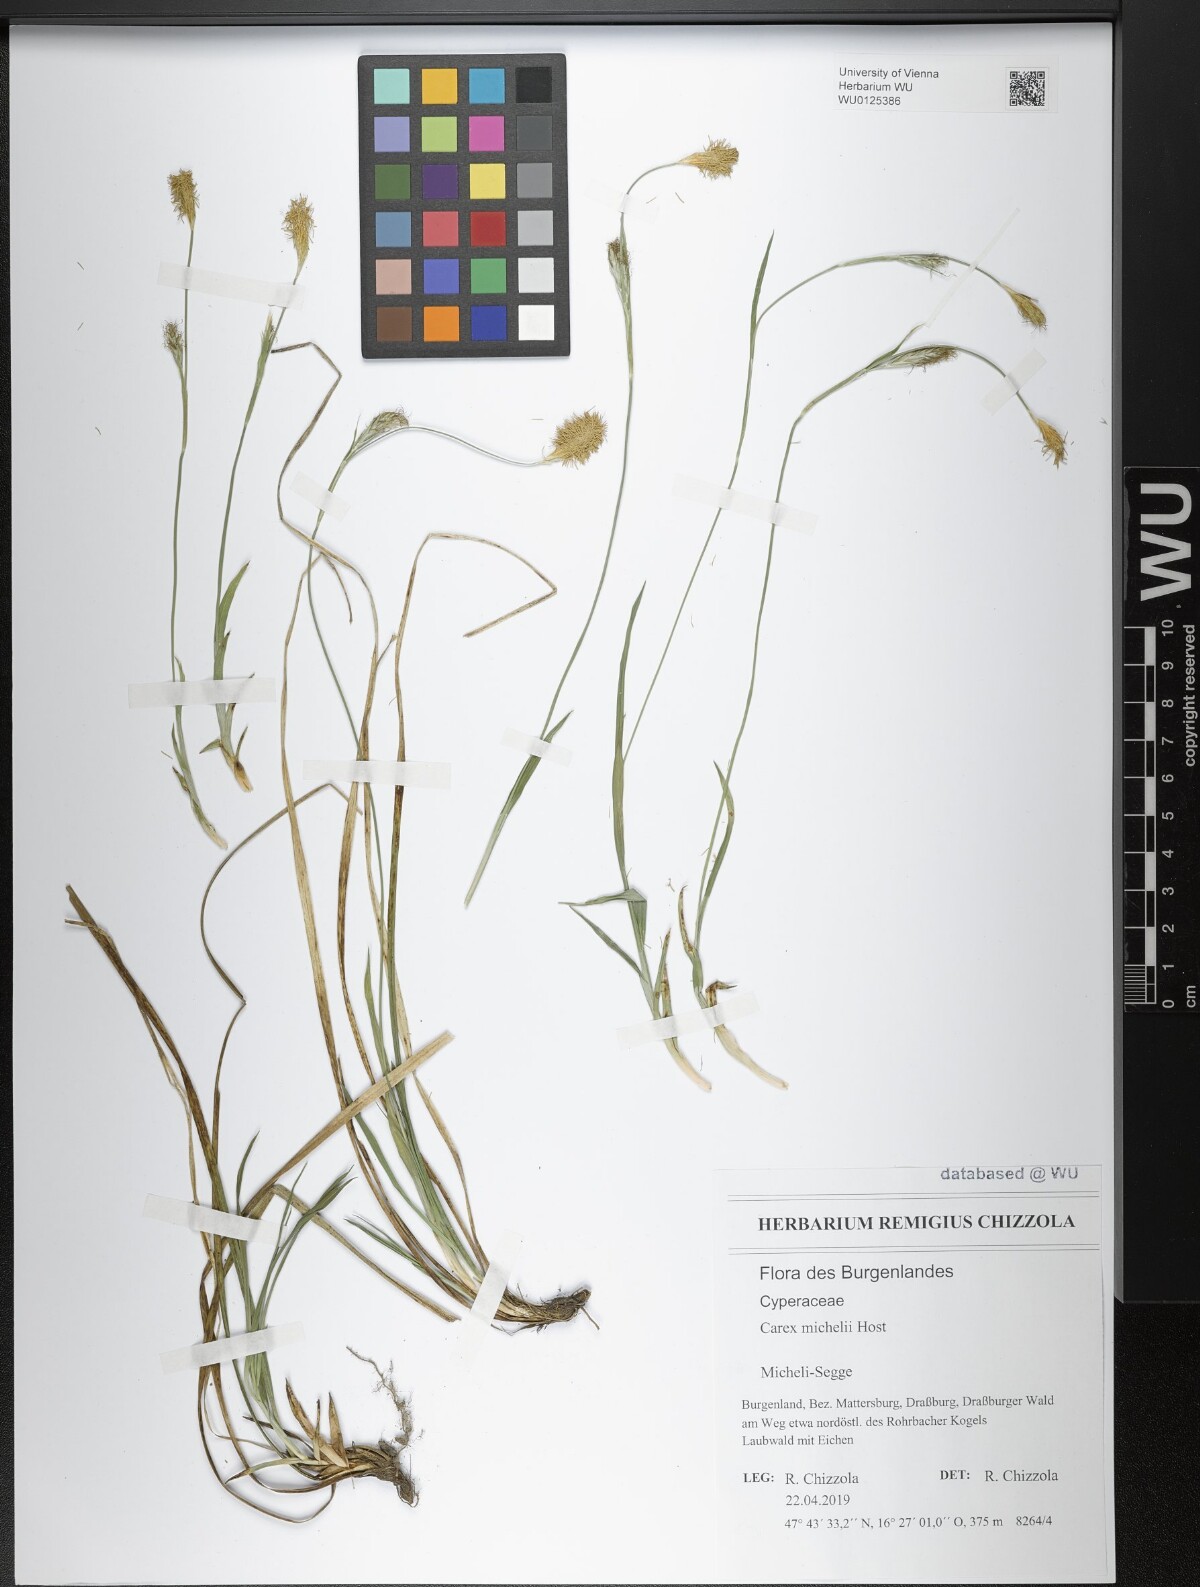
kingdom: Plantae
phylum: Tracheophyta
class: Liliopsida
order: Poales
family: Cyperaceae
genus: Carex
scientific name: Carex michelii
